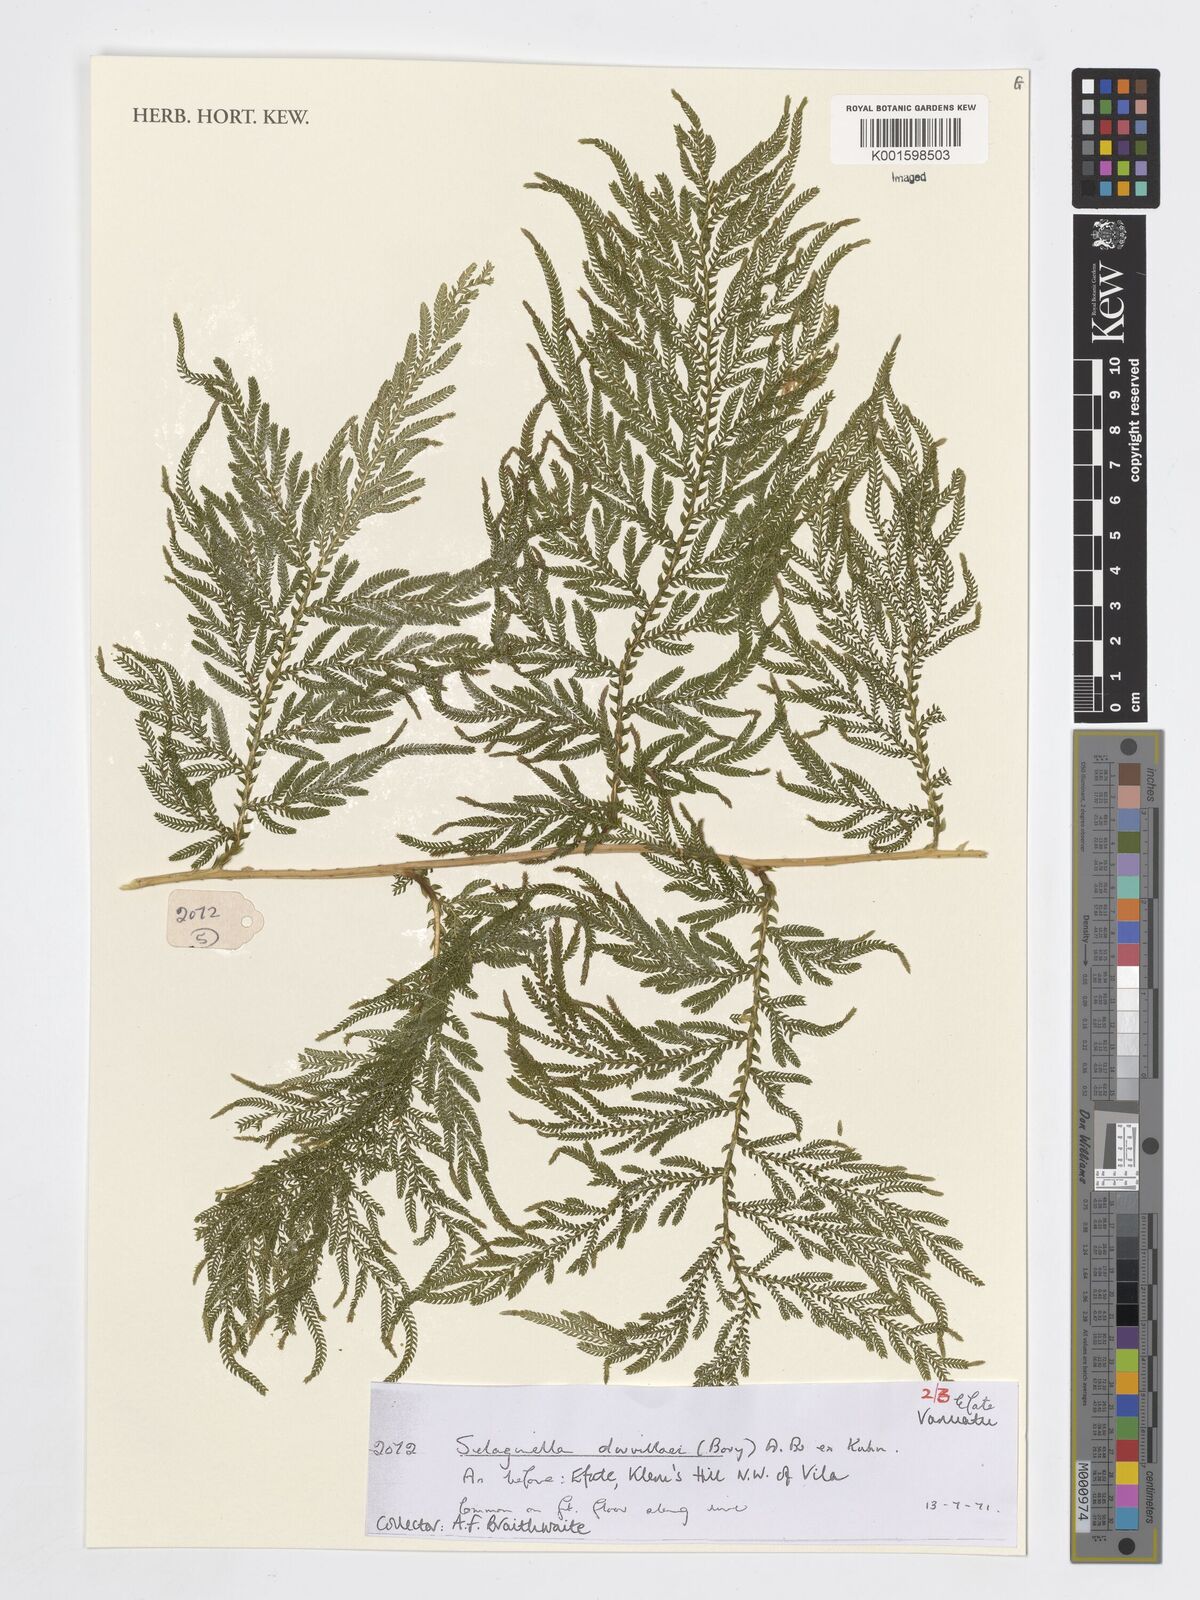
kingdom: Plantae
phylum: Tracheophyta
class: Lycopodiopsida
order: Selaginellales
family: Selaginellaceae
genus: Selaginella
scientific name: Selaginella
